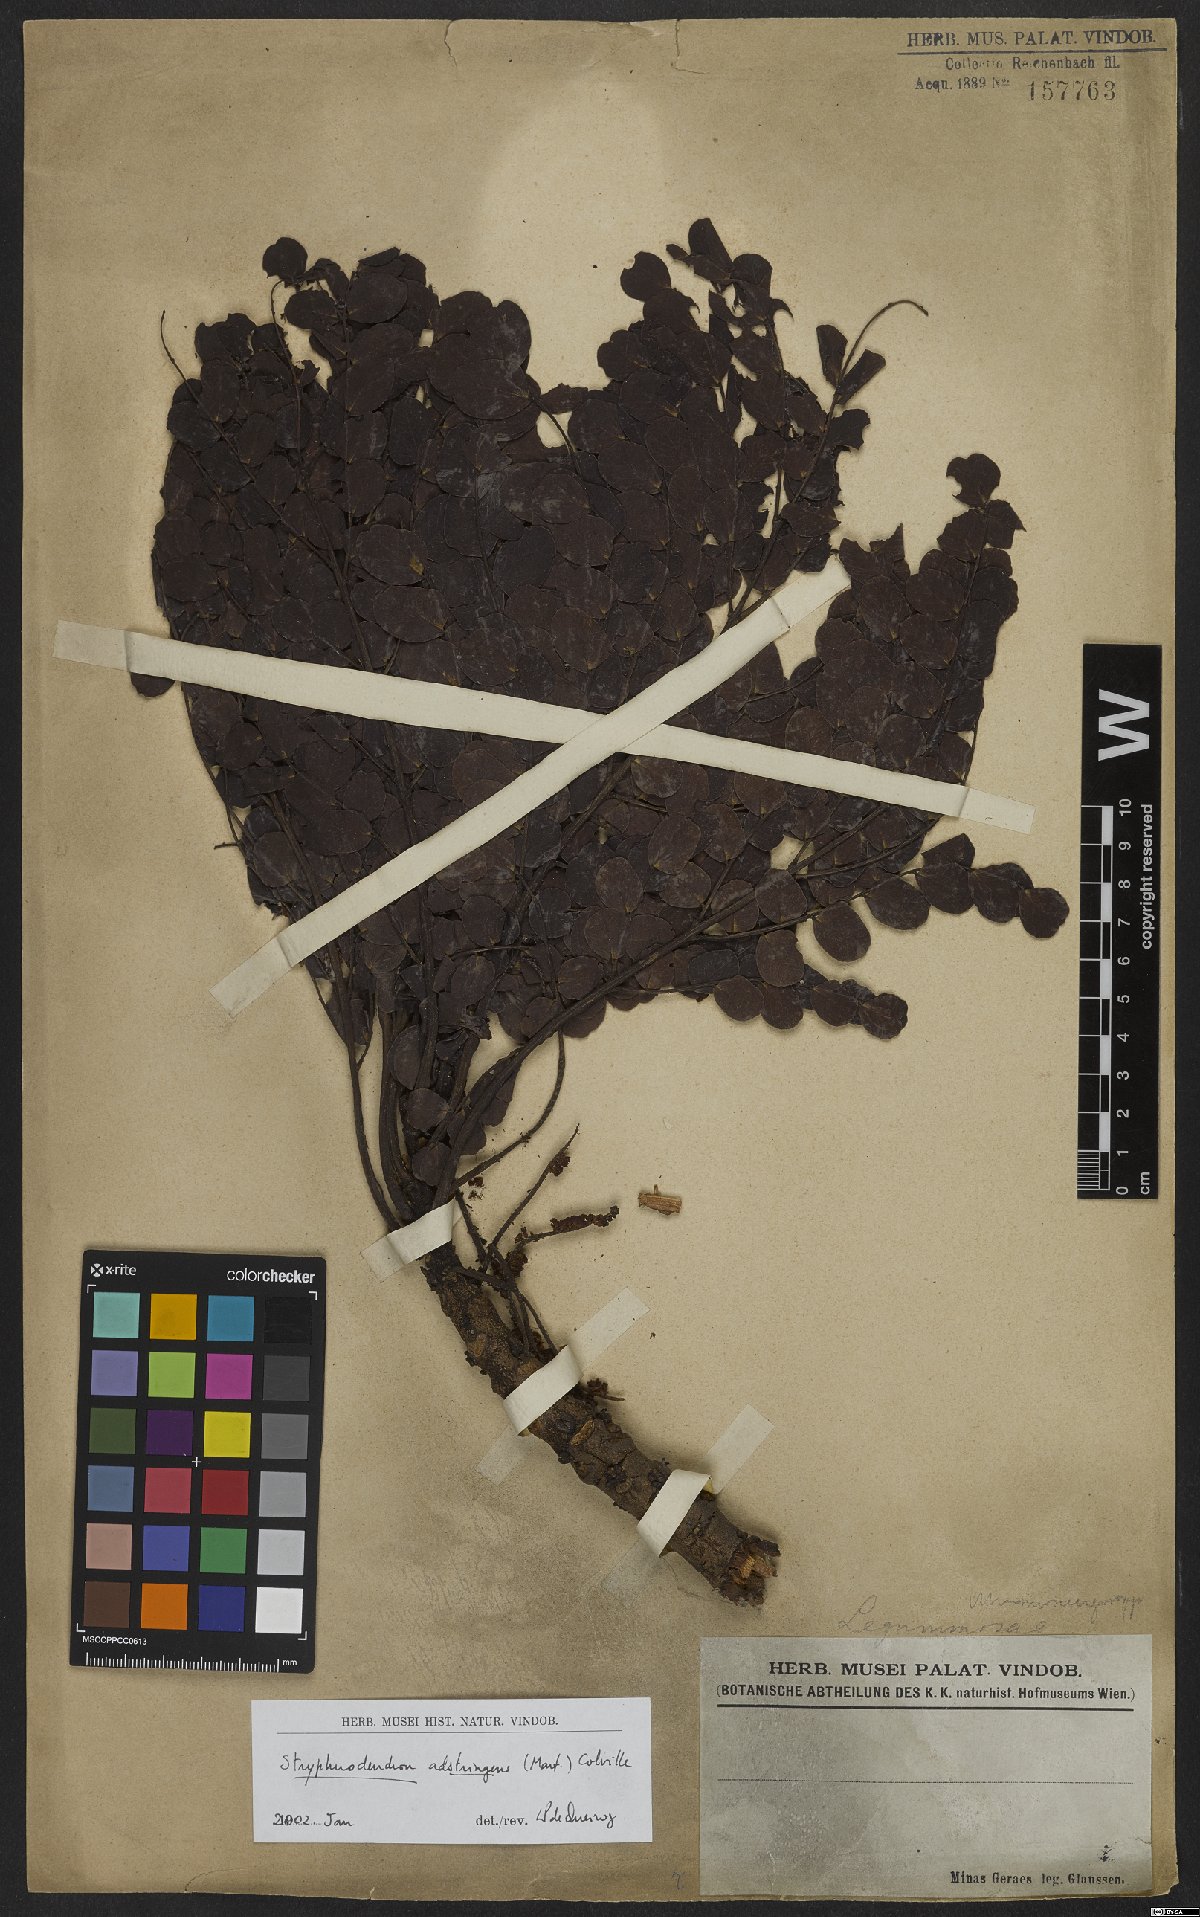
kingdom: Plantae
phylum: Tracheophyta
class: Magnoliopsida
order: Fabales
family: Fabaceae
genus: Stryphnodendron
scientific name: Stryphnodendron adstringens
